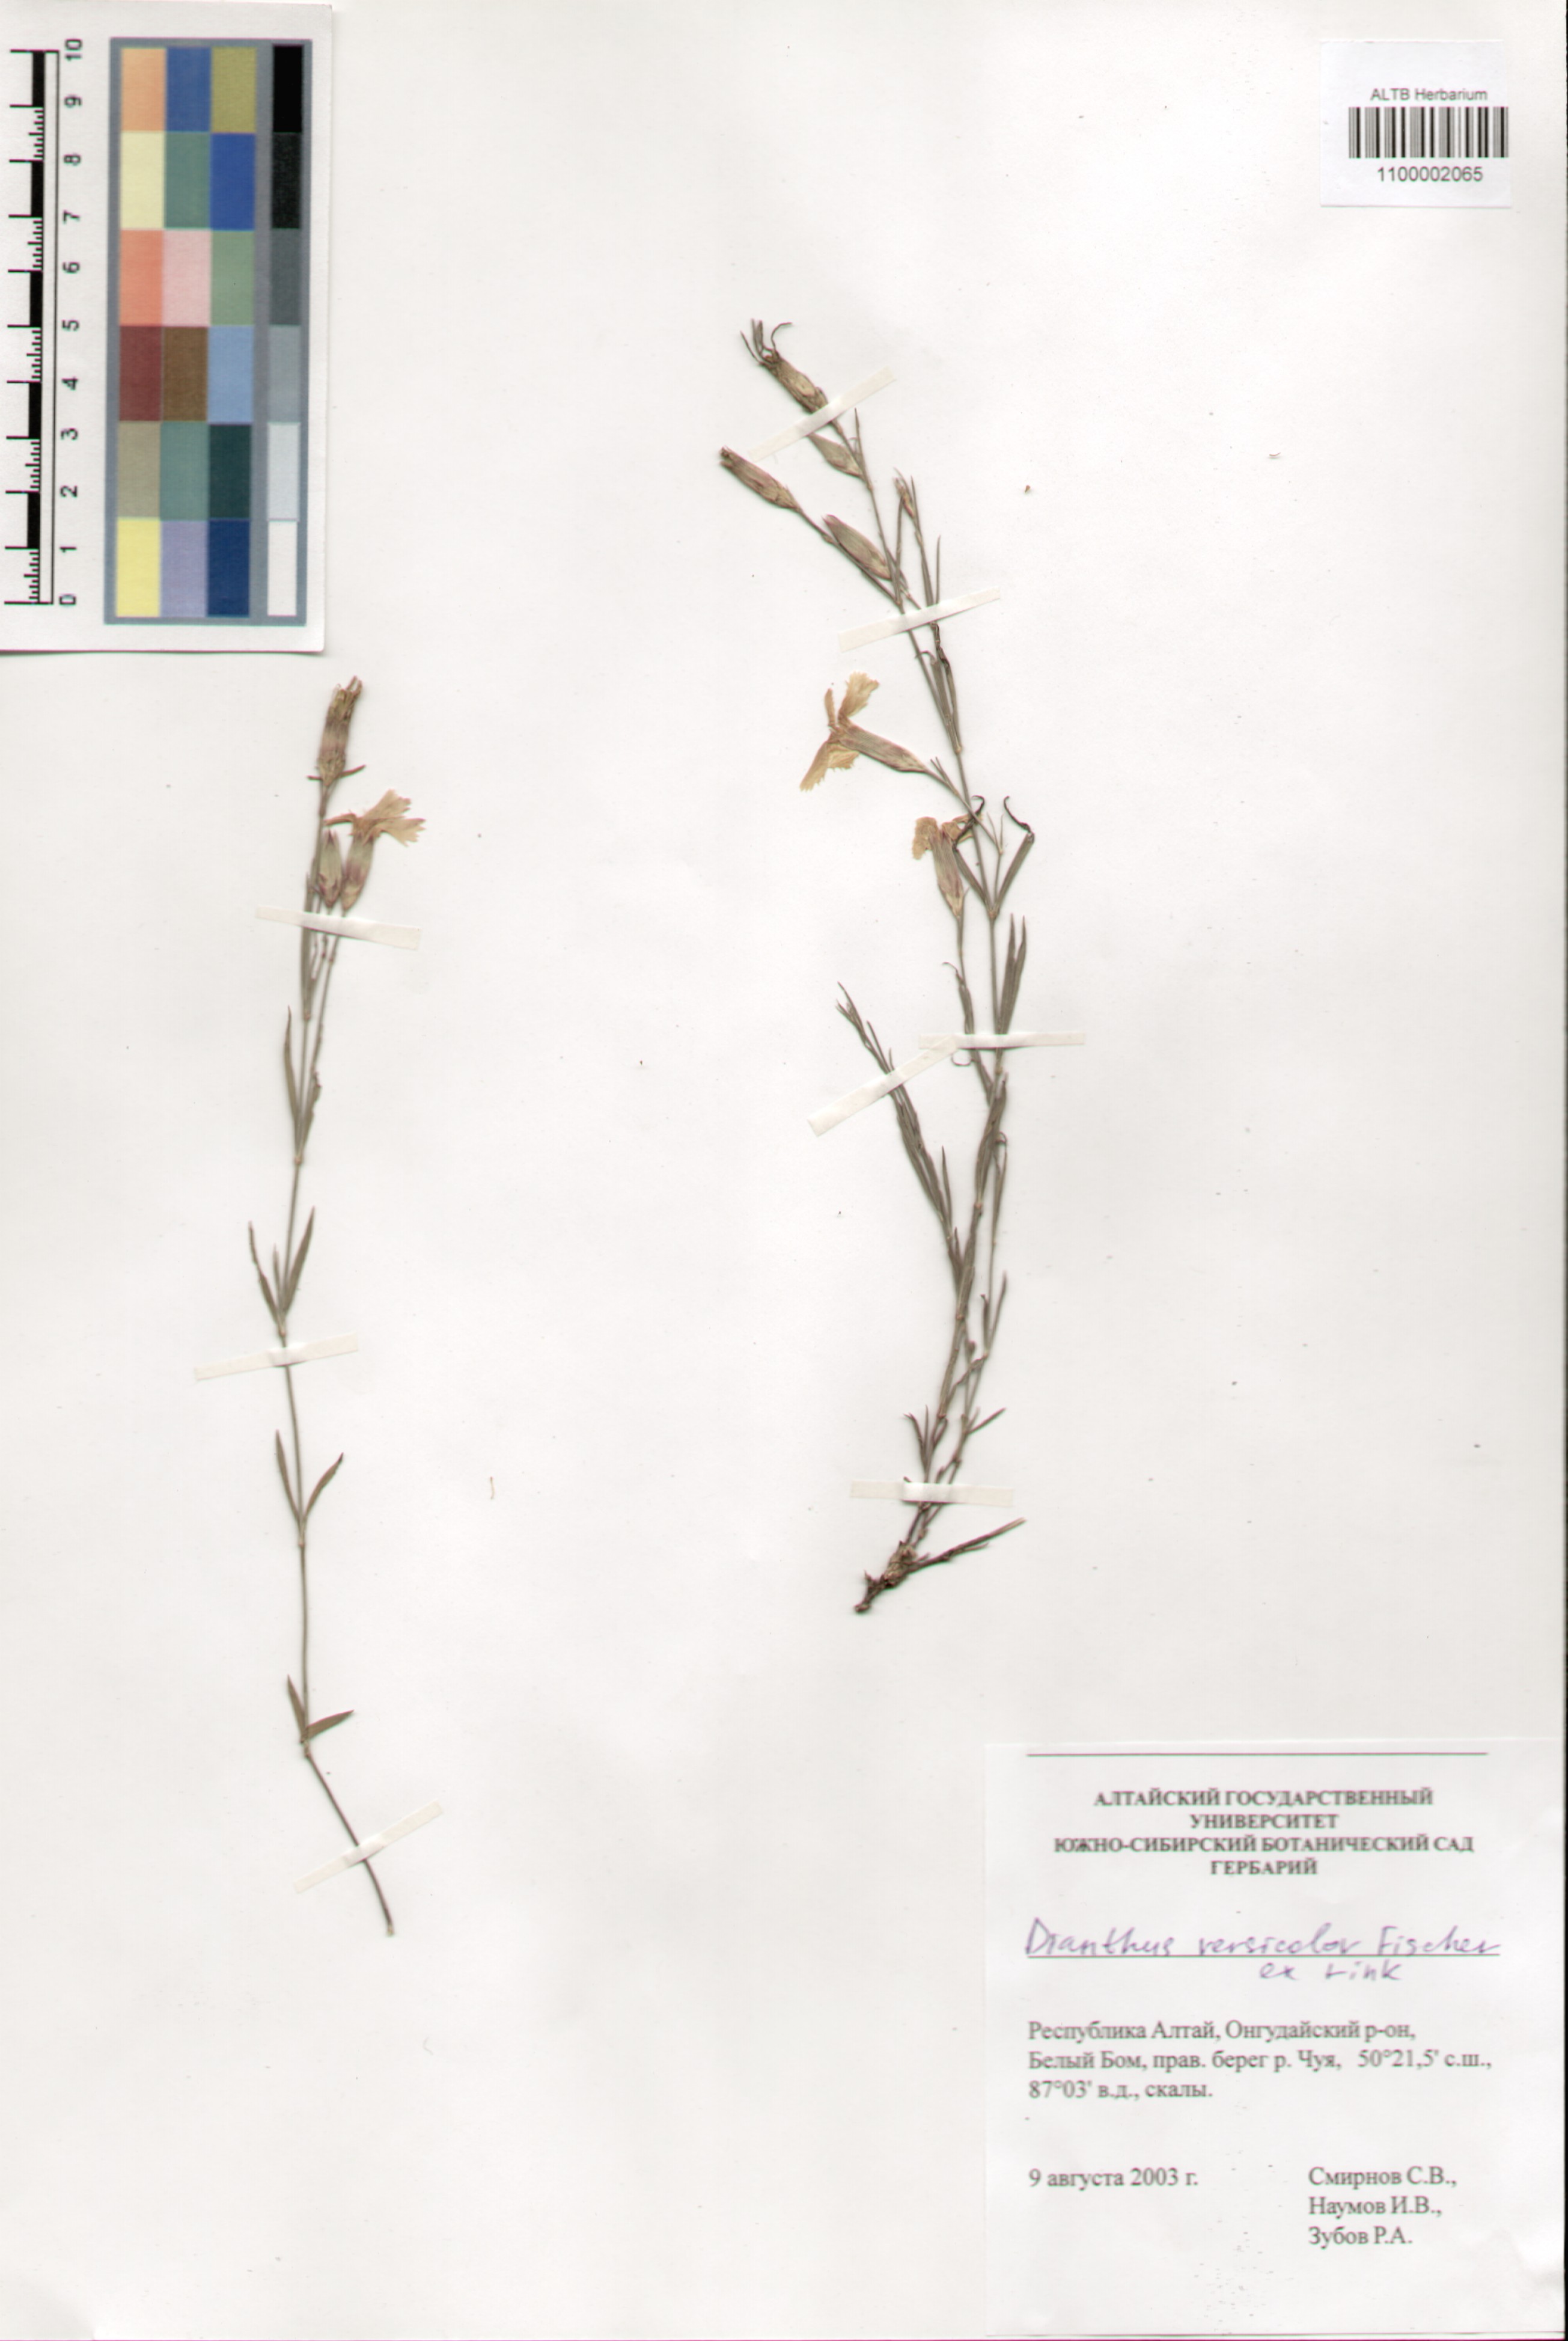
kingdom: Plantae
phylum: Tracheophyta
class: Magnoliopsida
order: Caryophyllales
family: Caryophyllaceae
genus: Dianthus
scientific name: Dianthus chinensis
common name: Rainbow pink
